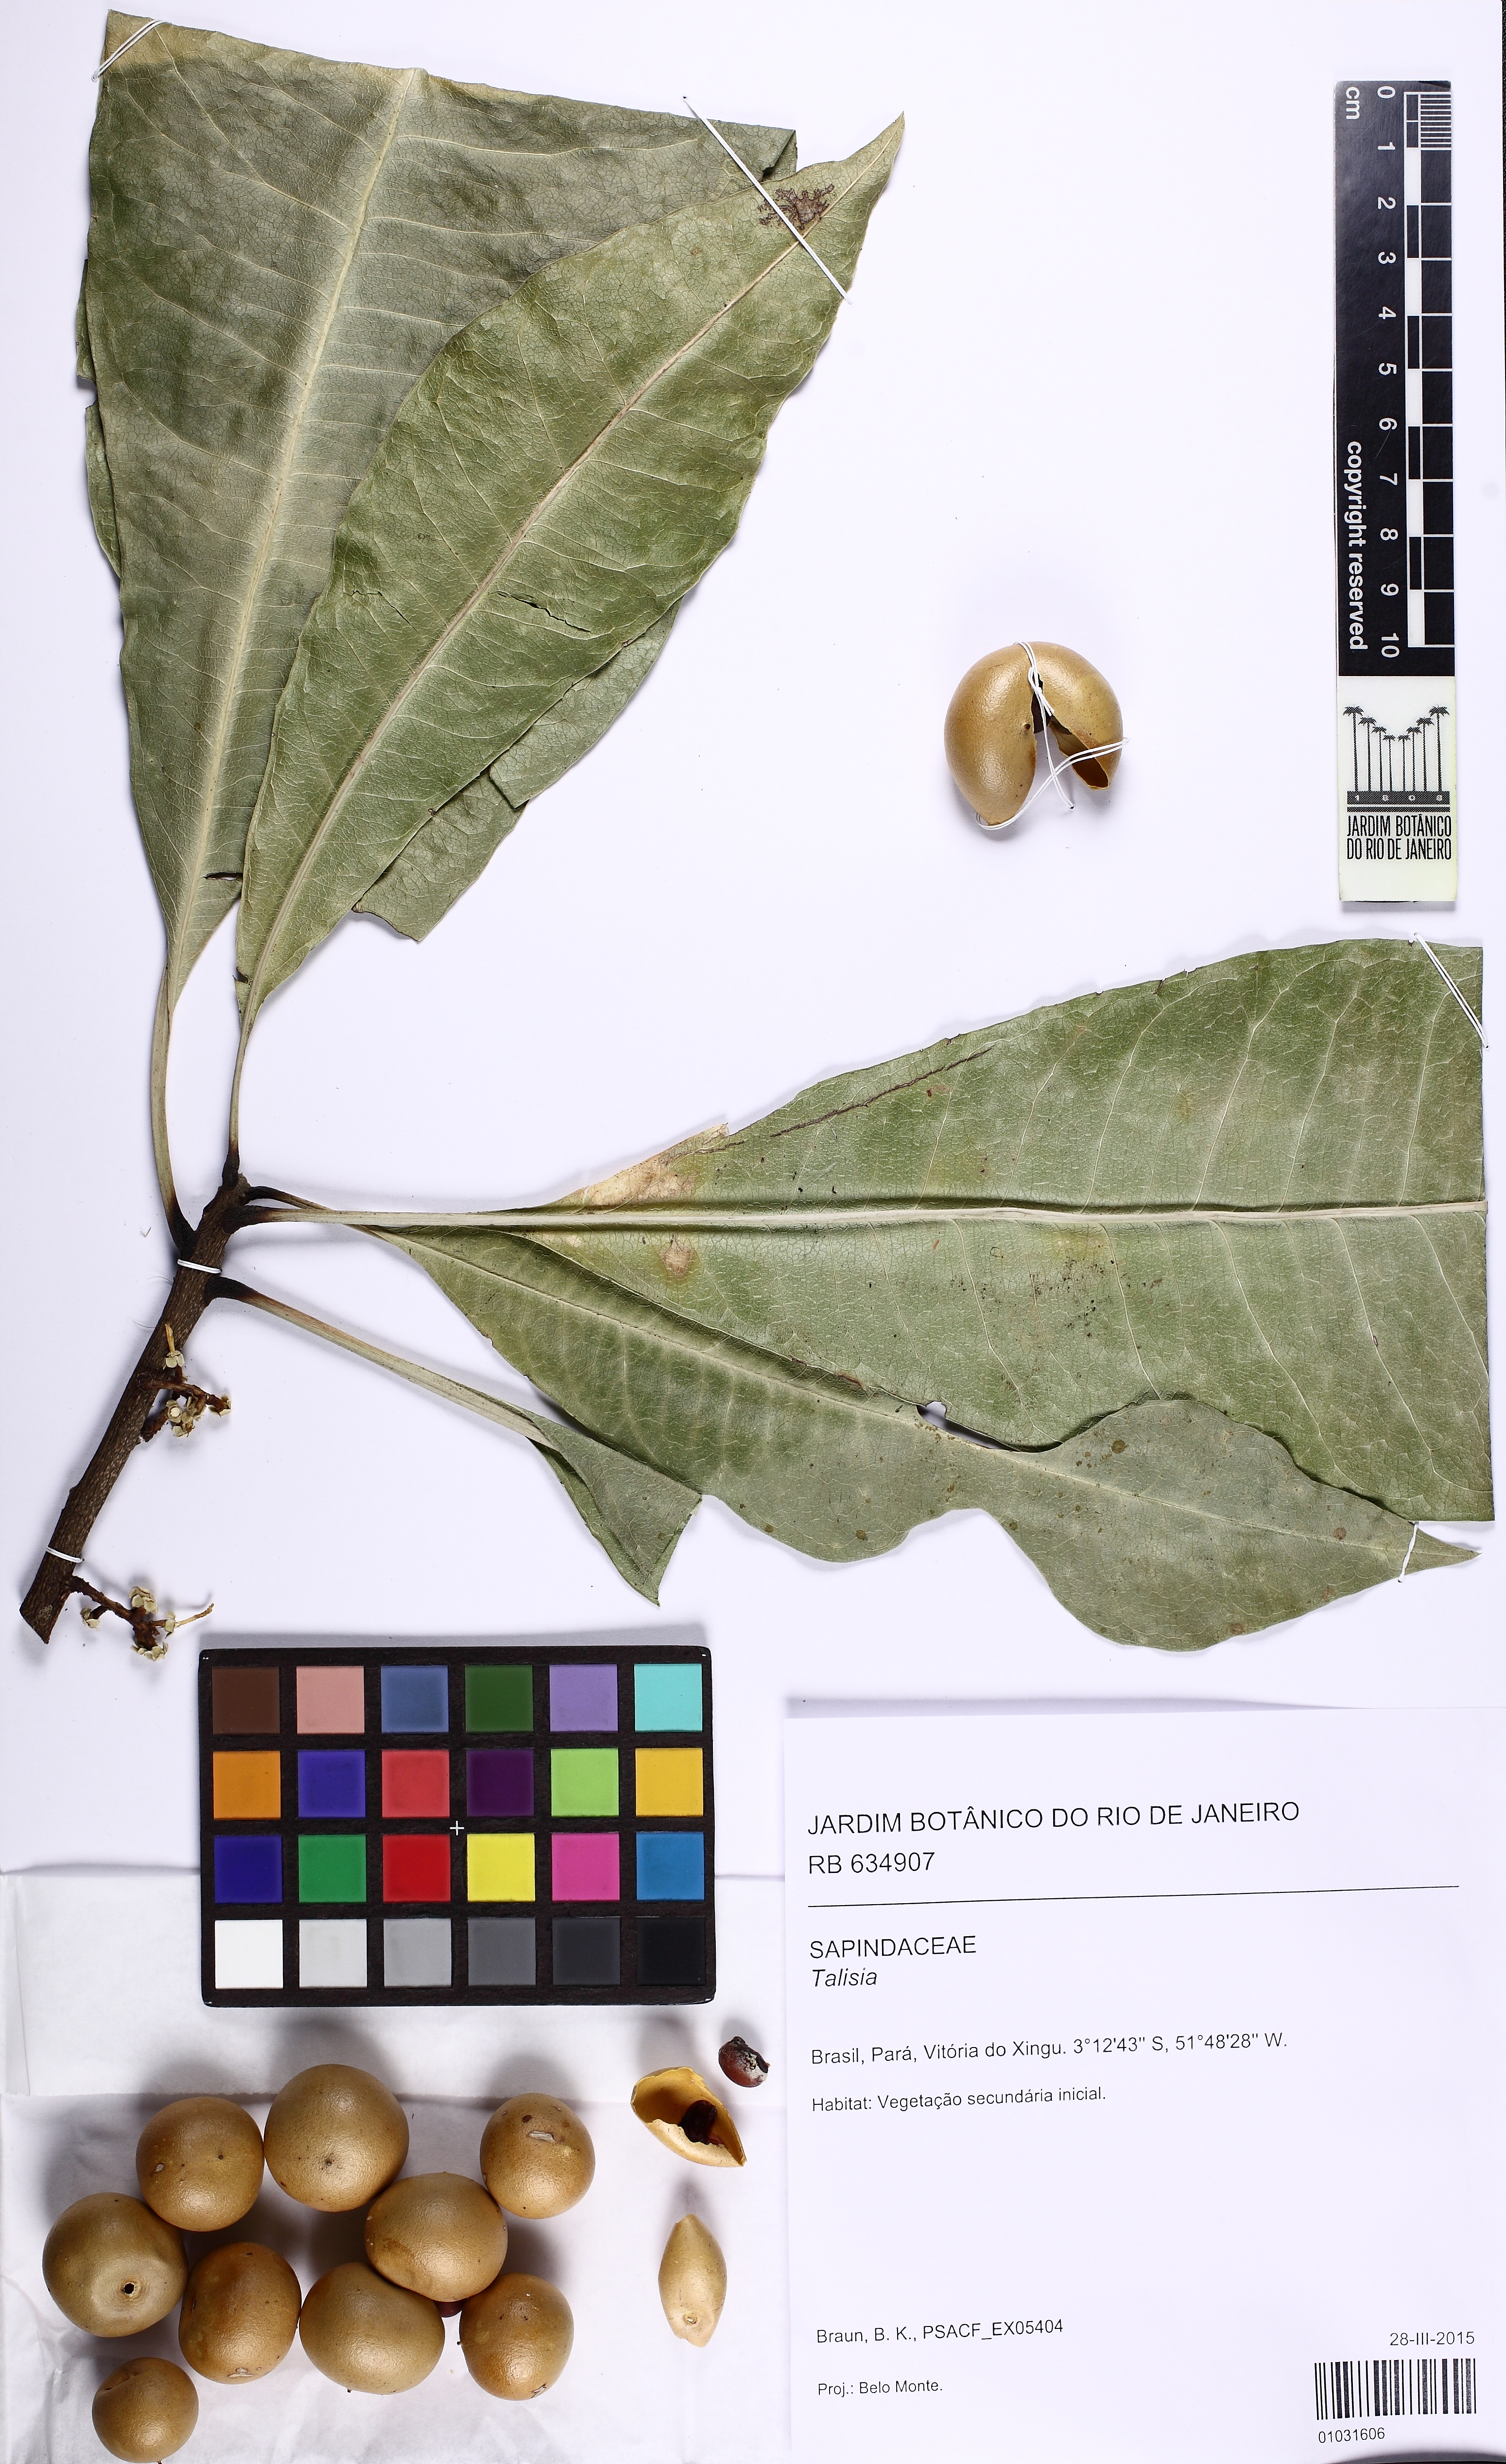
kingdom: Plantae
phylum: Tracheophyta
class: Magnoliopsida
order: Ericales
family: Primulaceae
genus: Clavija
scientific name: Clavija
